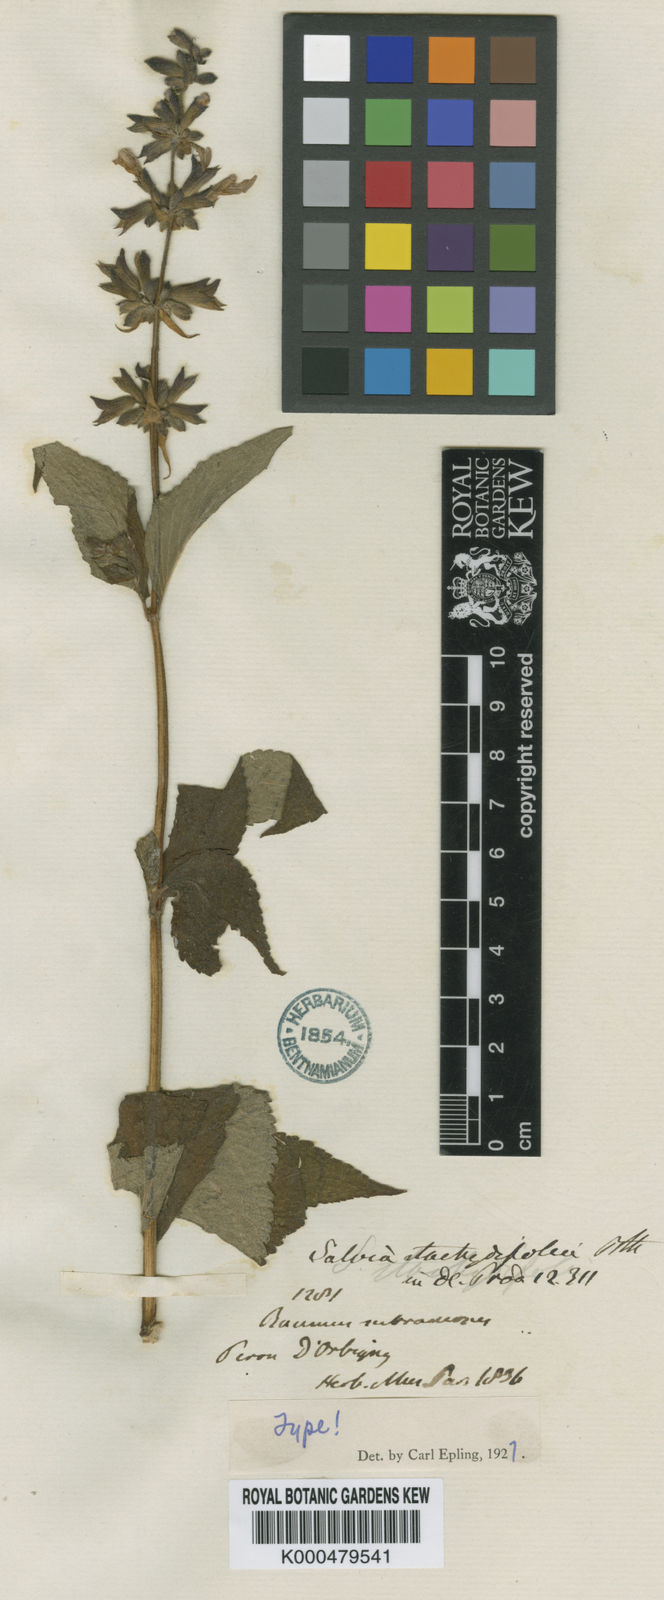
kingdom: Plantae
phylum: Tracheophyta
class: Magnoliopsida
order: Lamiales
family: Lamiaceae
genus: Salvia
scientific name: Salvia stachydifolia
